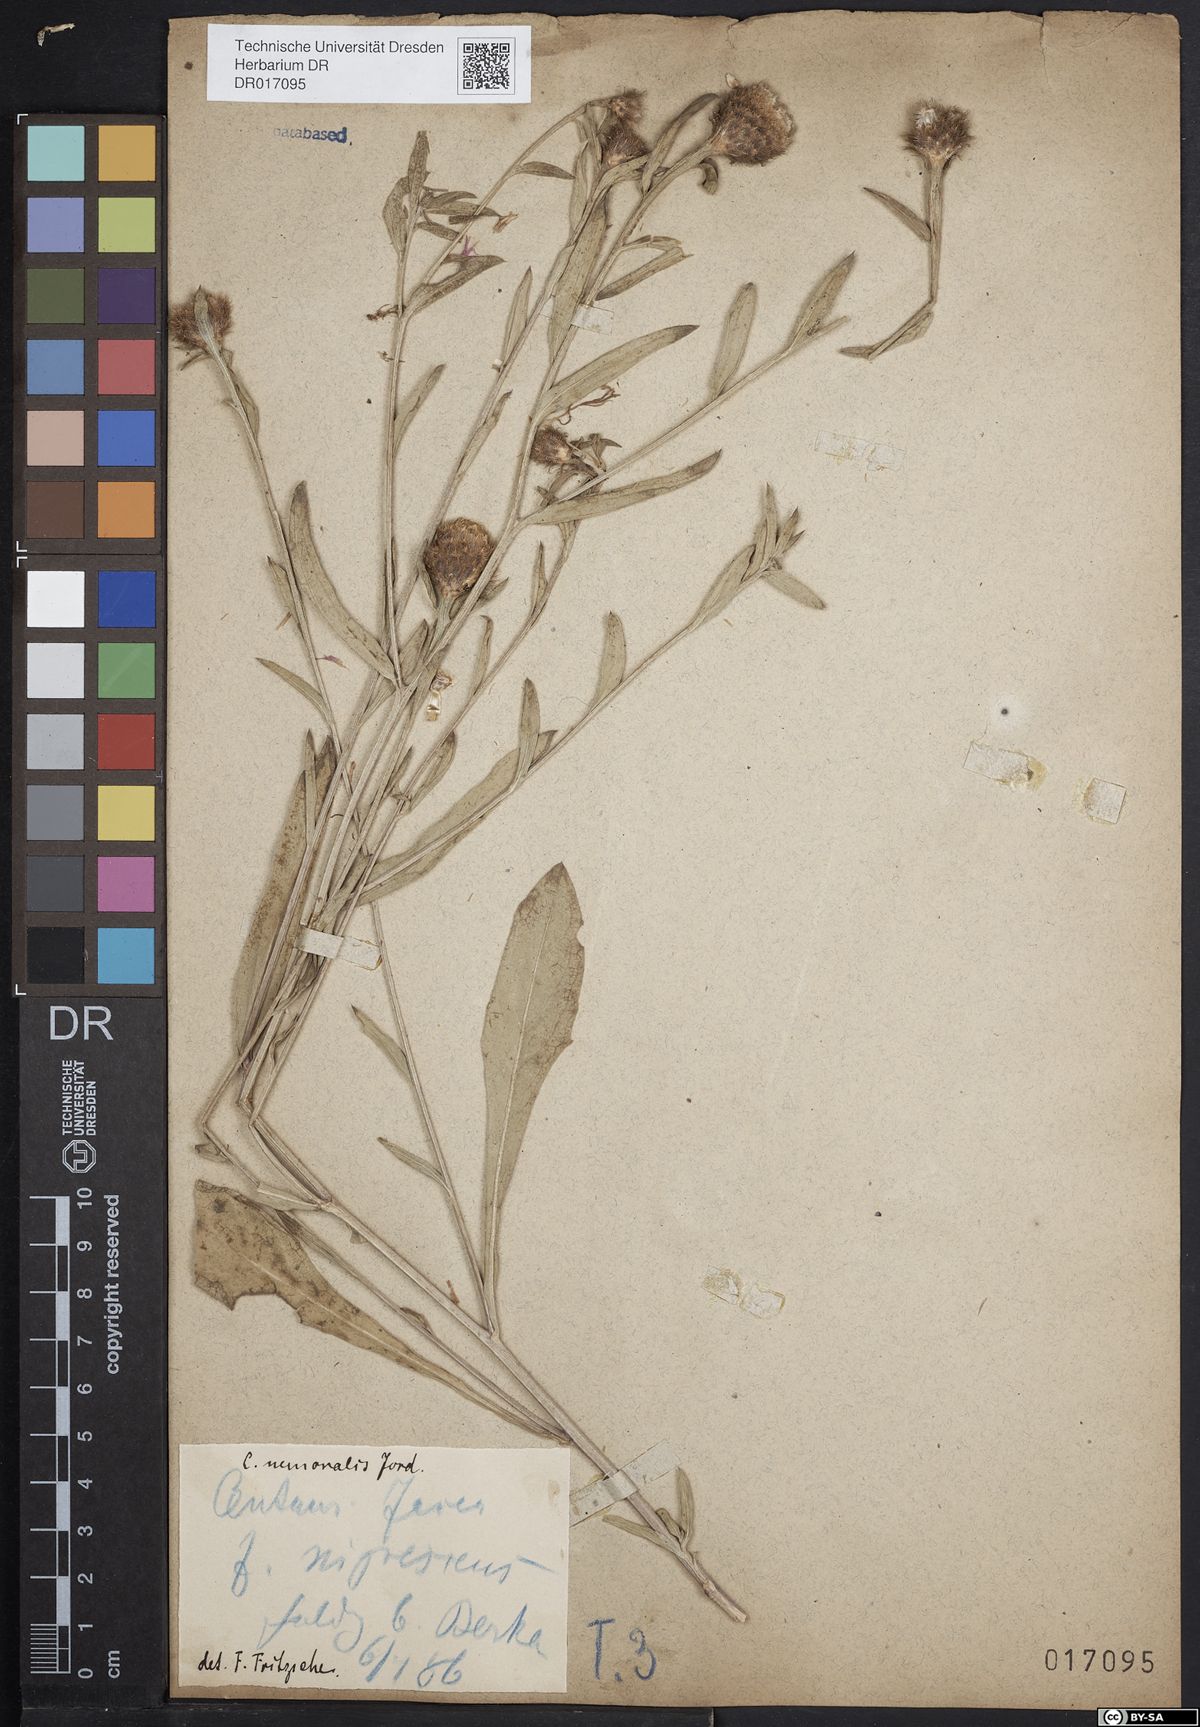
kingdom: Plantae
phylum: Tracheophyta
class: Magnoliopsida
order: Asterales
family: Asteraceae
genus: Centaurea
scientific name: Centaurea nigra
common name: Lesser knapweed
